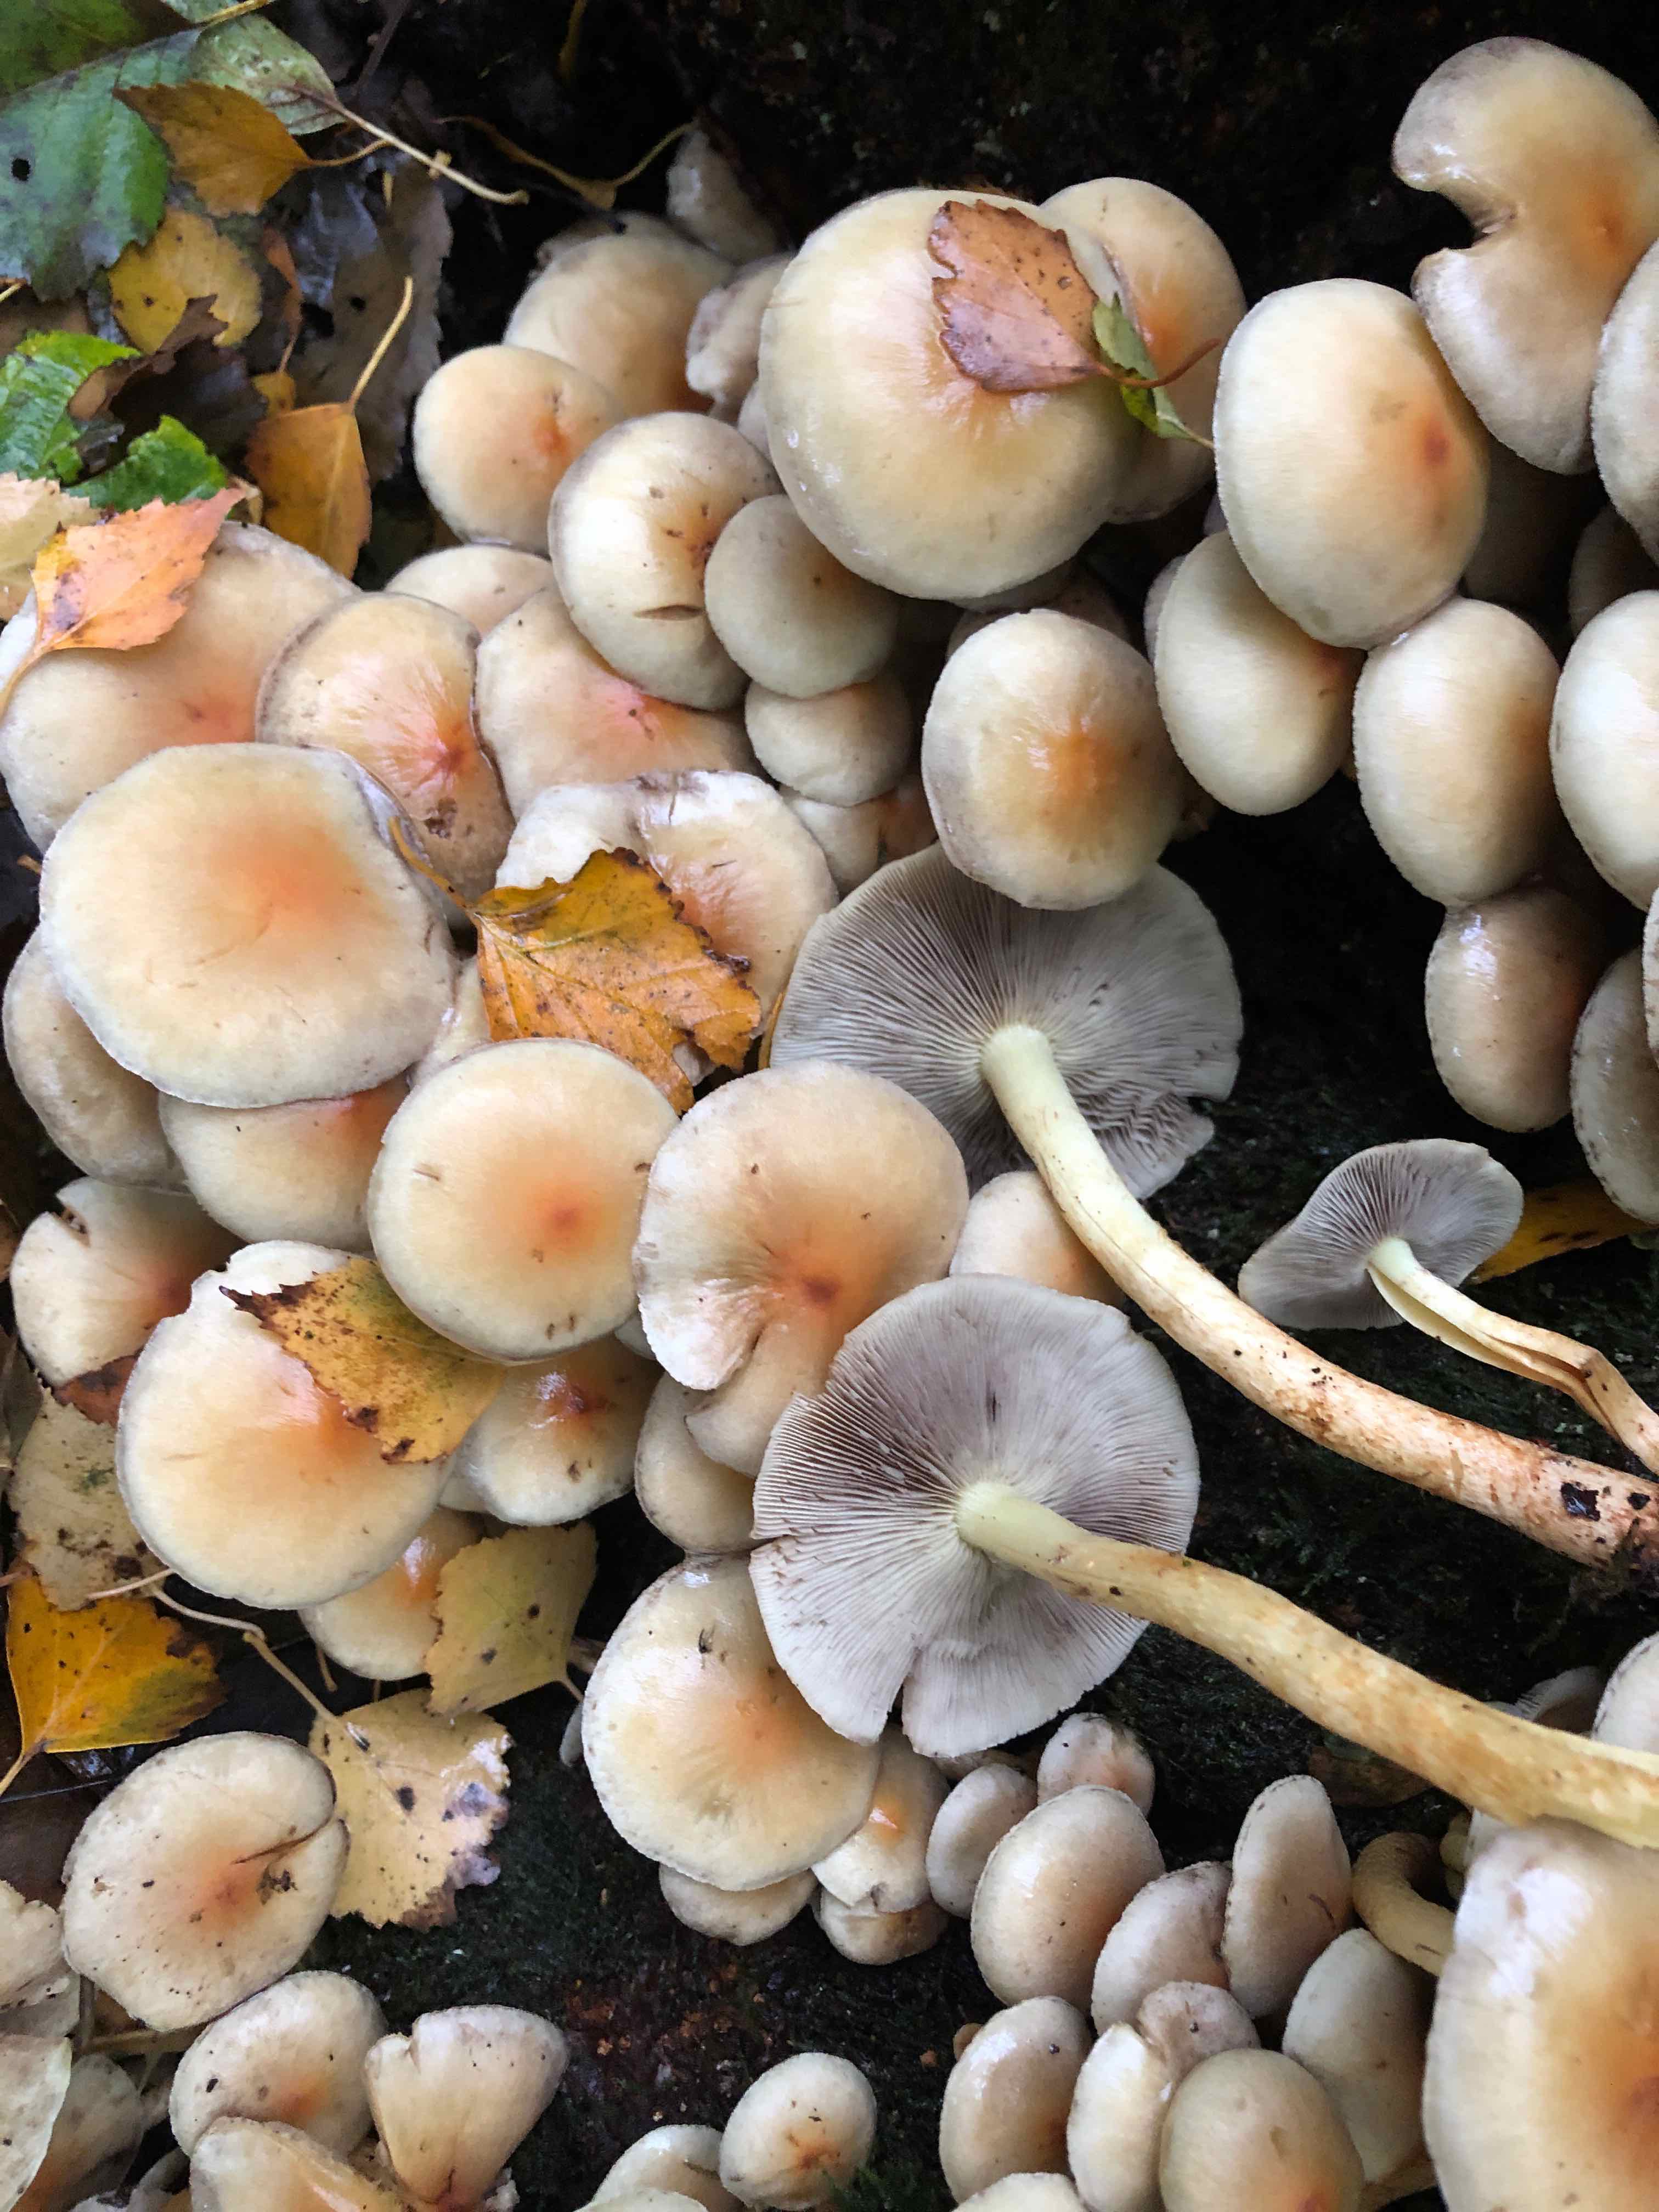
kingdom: Fungi
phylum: Basidiomycota
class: Agaricomycetes
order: Agaricales
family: Strophariaceae
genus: Hypholoma
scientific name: Hypholoma lateritium
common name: teglrød svovlhat
